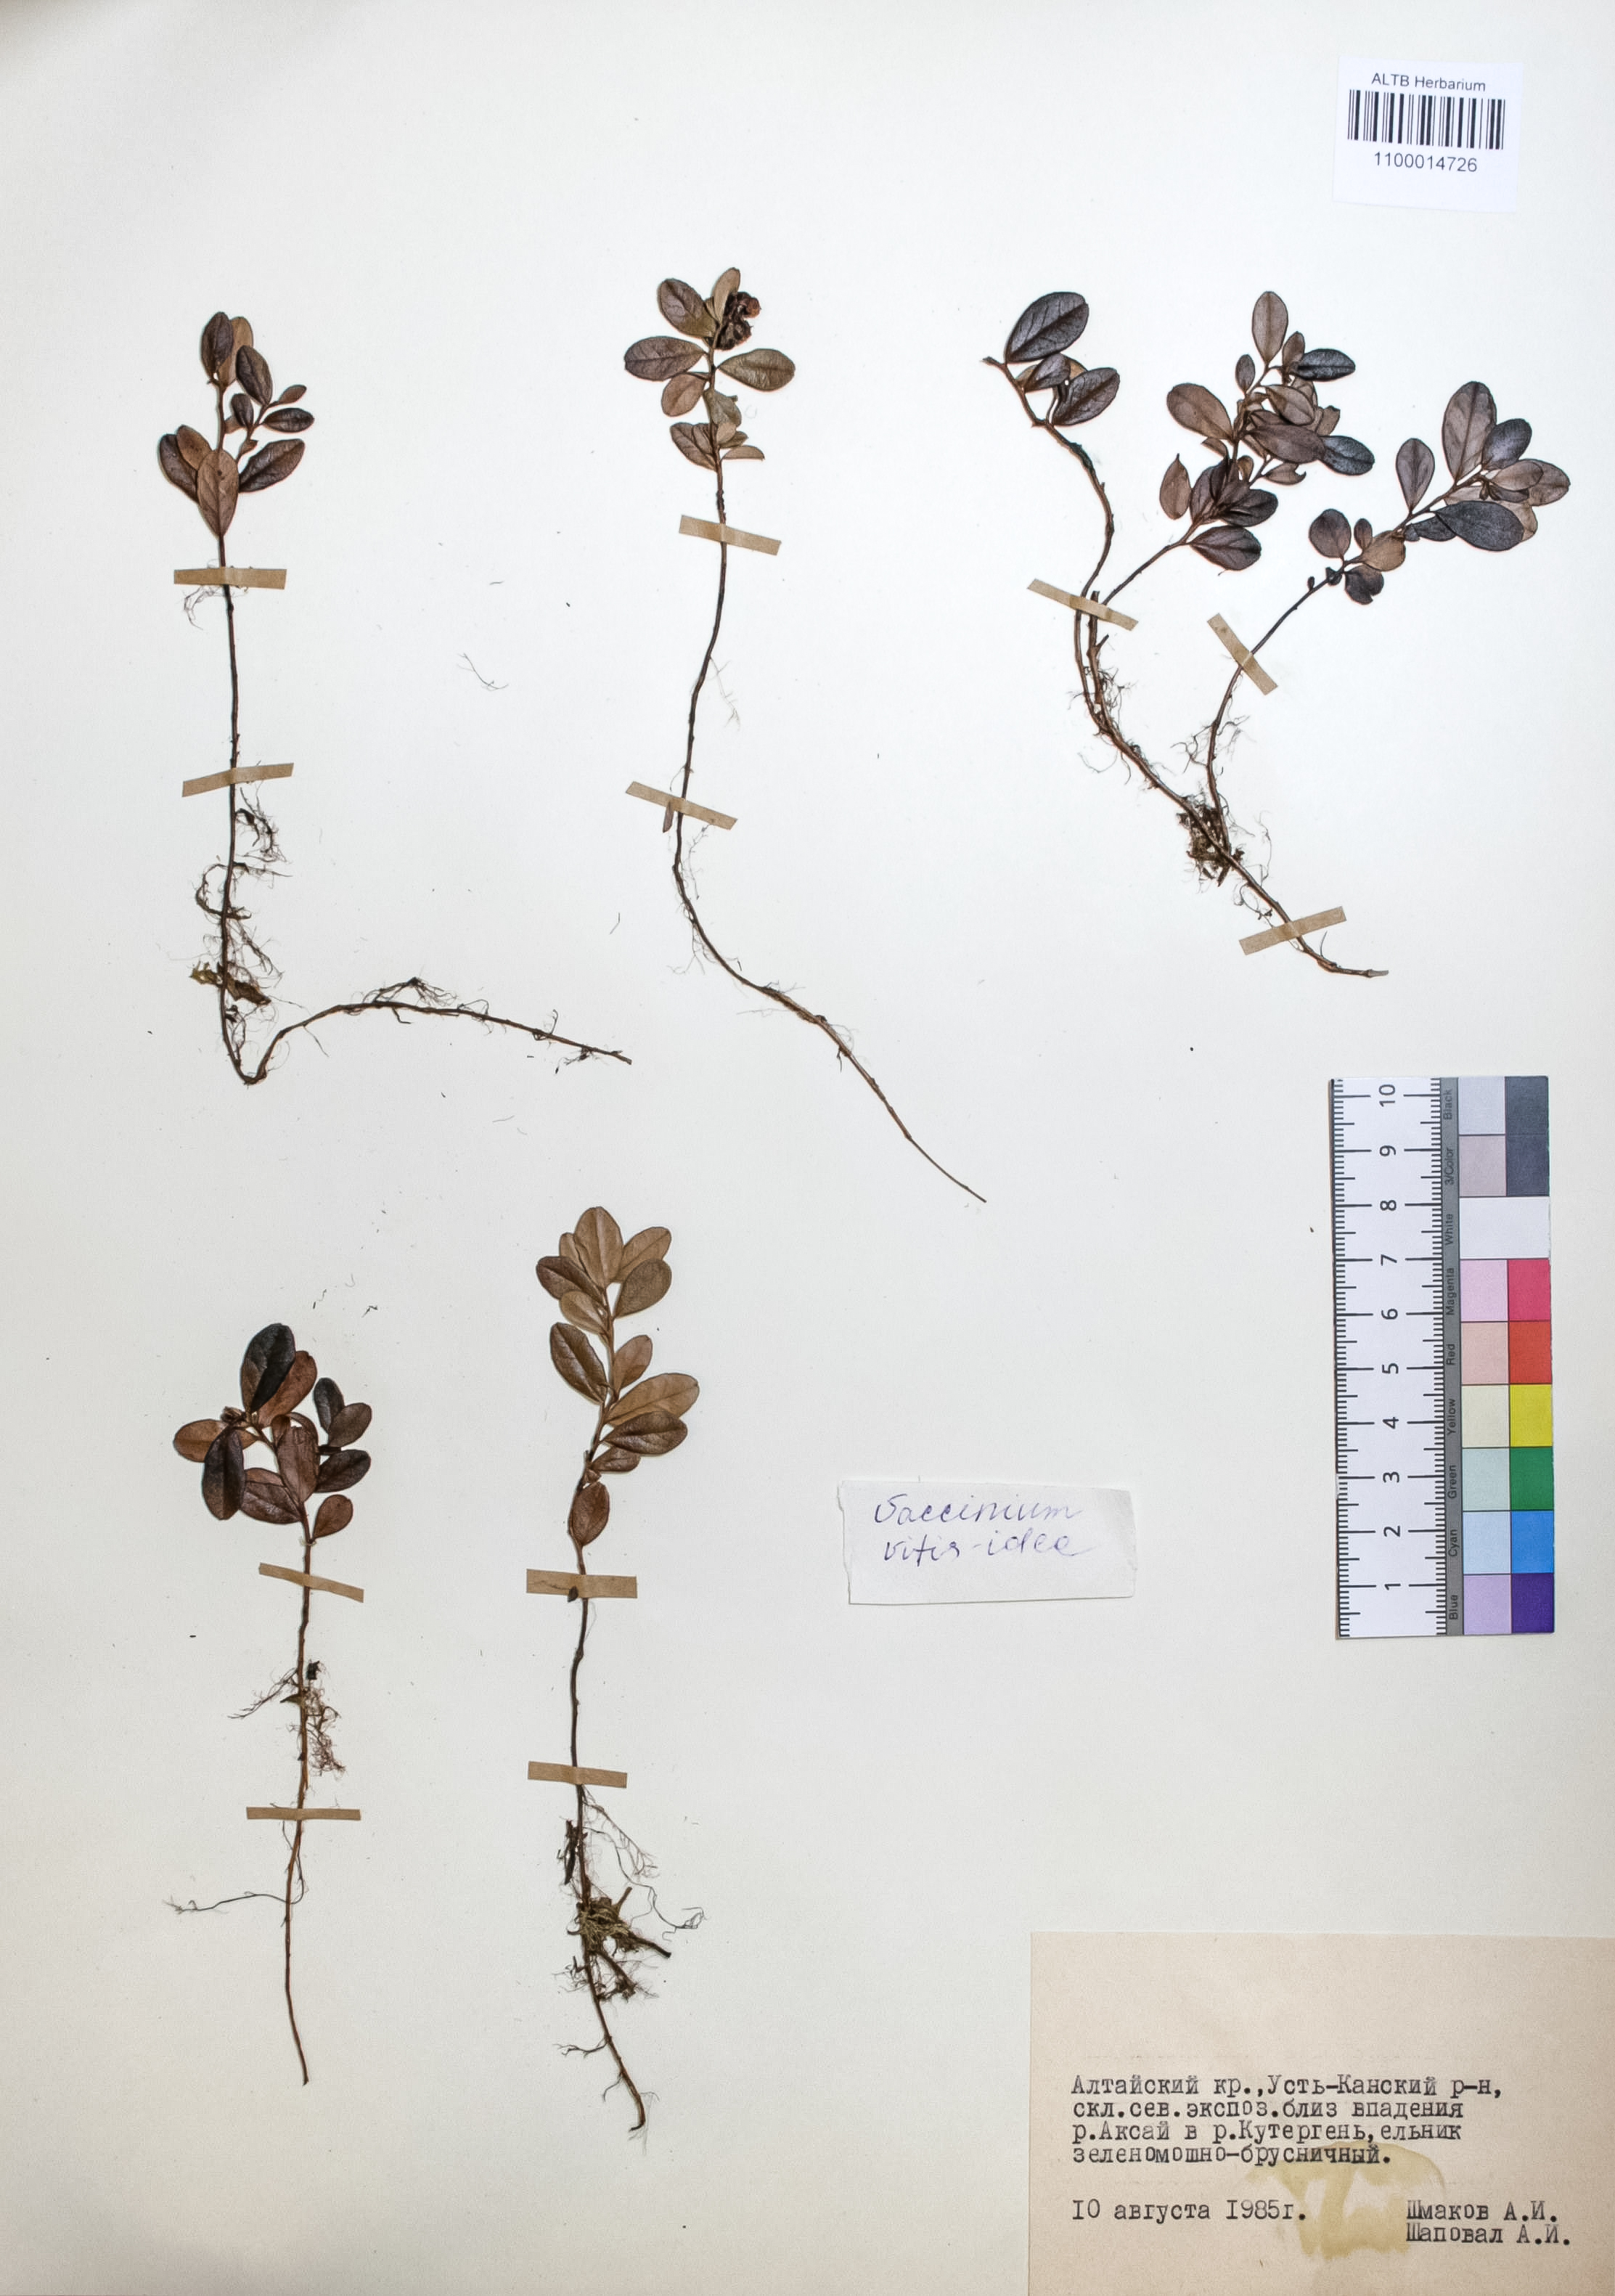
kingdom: Plantae
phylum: Tracheophyta
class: Magnoliopsida
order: Ericales
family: Ericaceae
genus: Vaccinium
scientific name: Vaccinium vitis-idaea
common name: Cowberry
